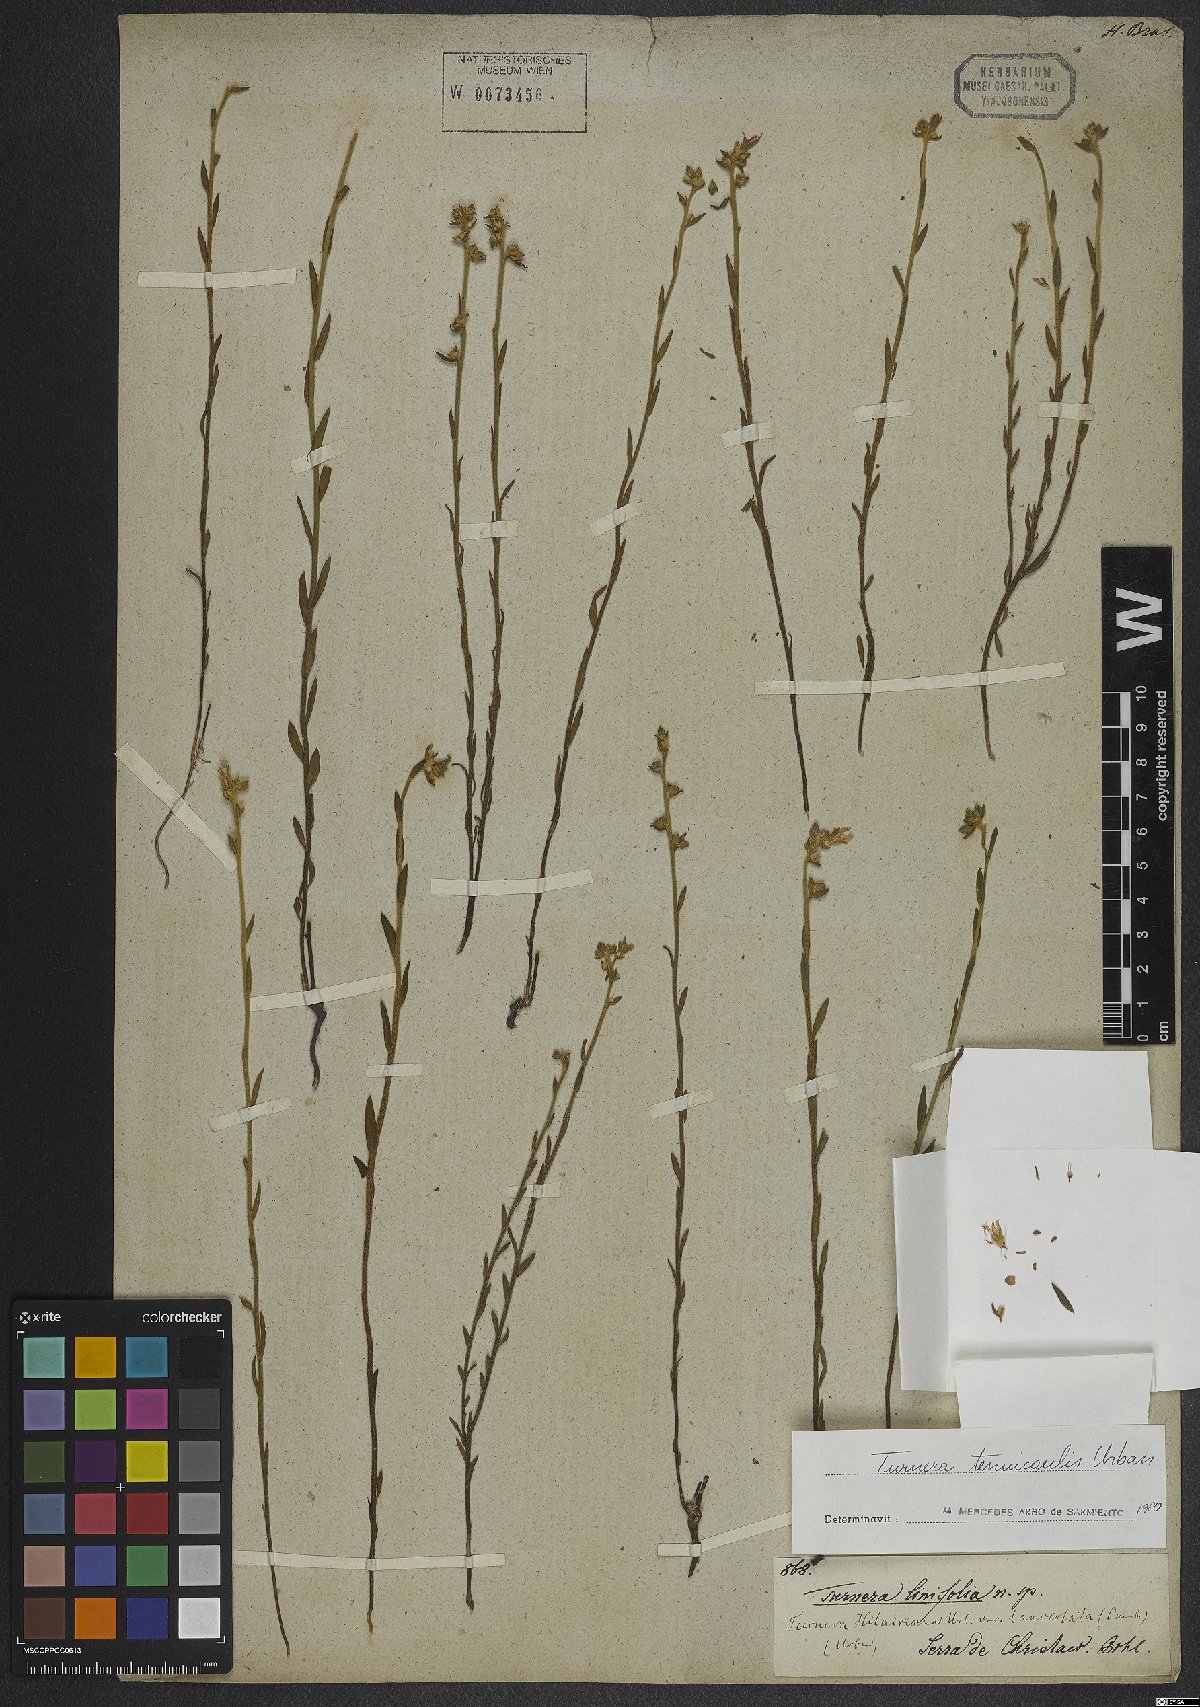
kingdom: Plantae
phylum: Tracheophyta
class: Magnoliopsida
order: Malpighiales
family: Turneraceae
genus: Turnera
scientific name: Turnera tenuicaulis
